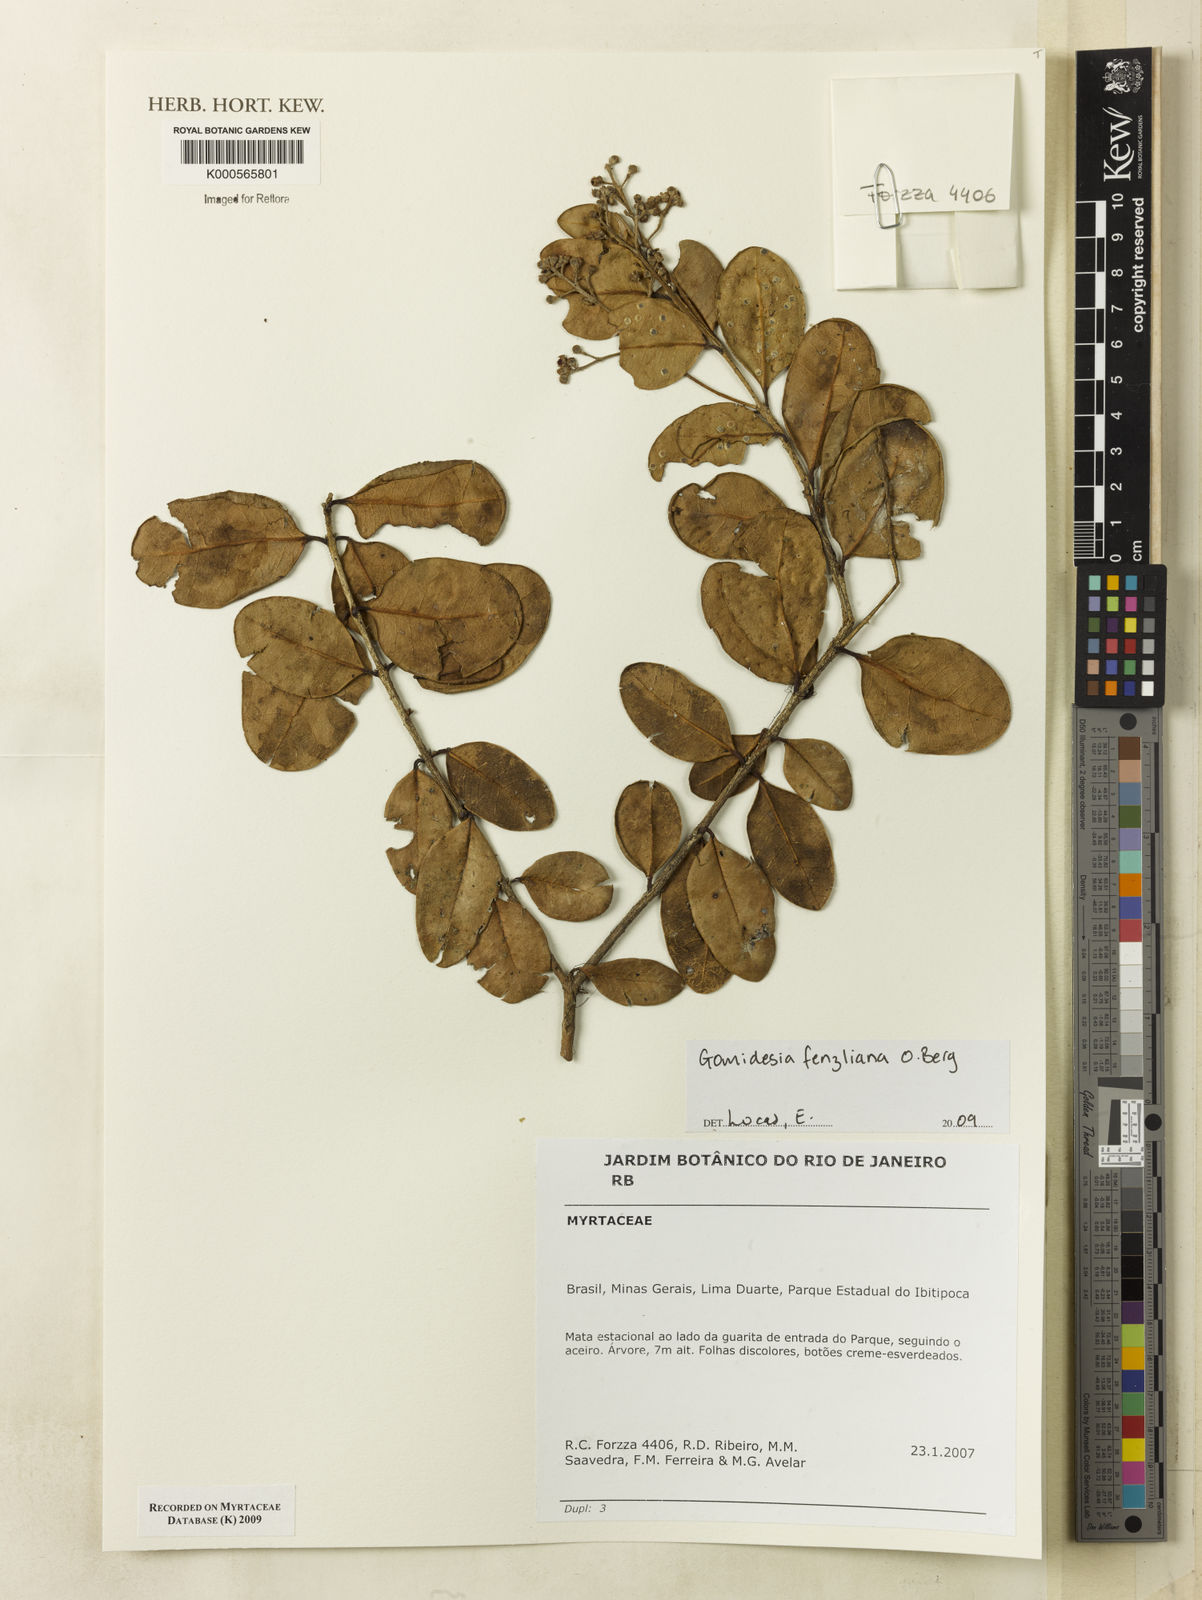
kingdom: Plantae
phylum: Tracheophyta
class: Magnoliopsida
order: Myrtales
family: Myrtaceae
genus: Myrcia
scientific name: Myrcia ilheosensis
